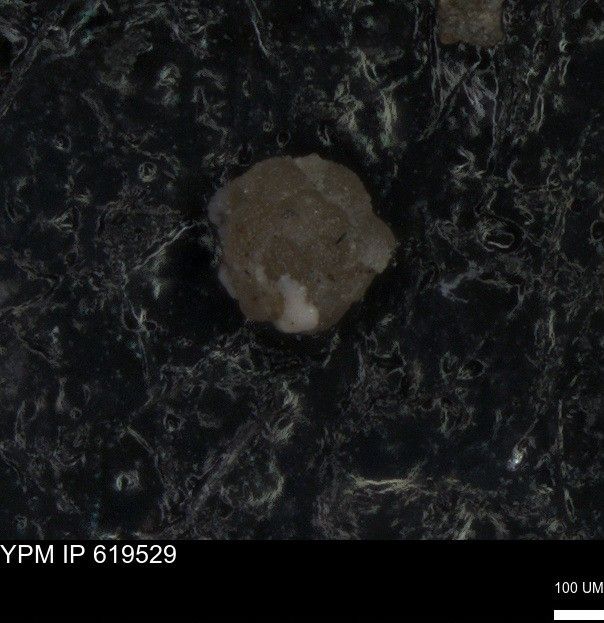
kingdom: Chromista
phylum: Foraminifera
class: Globothalamea
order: Rotaliida
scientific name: Rotaliida
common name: forams
